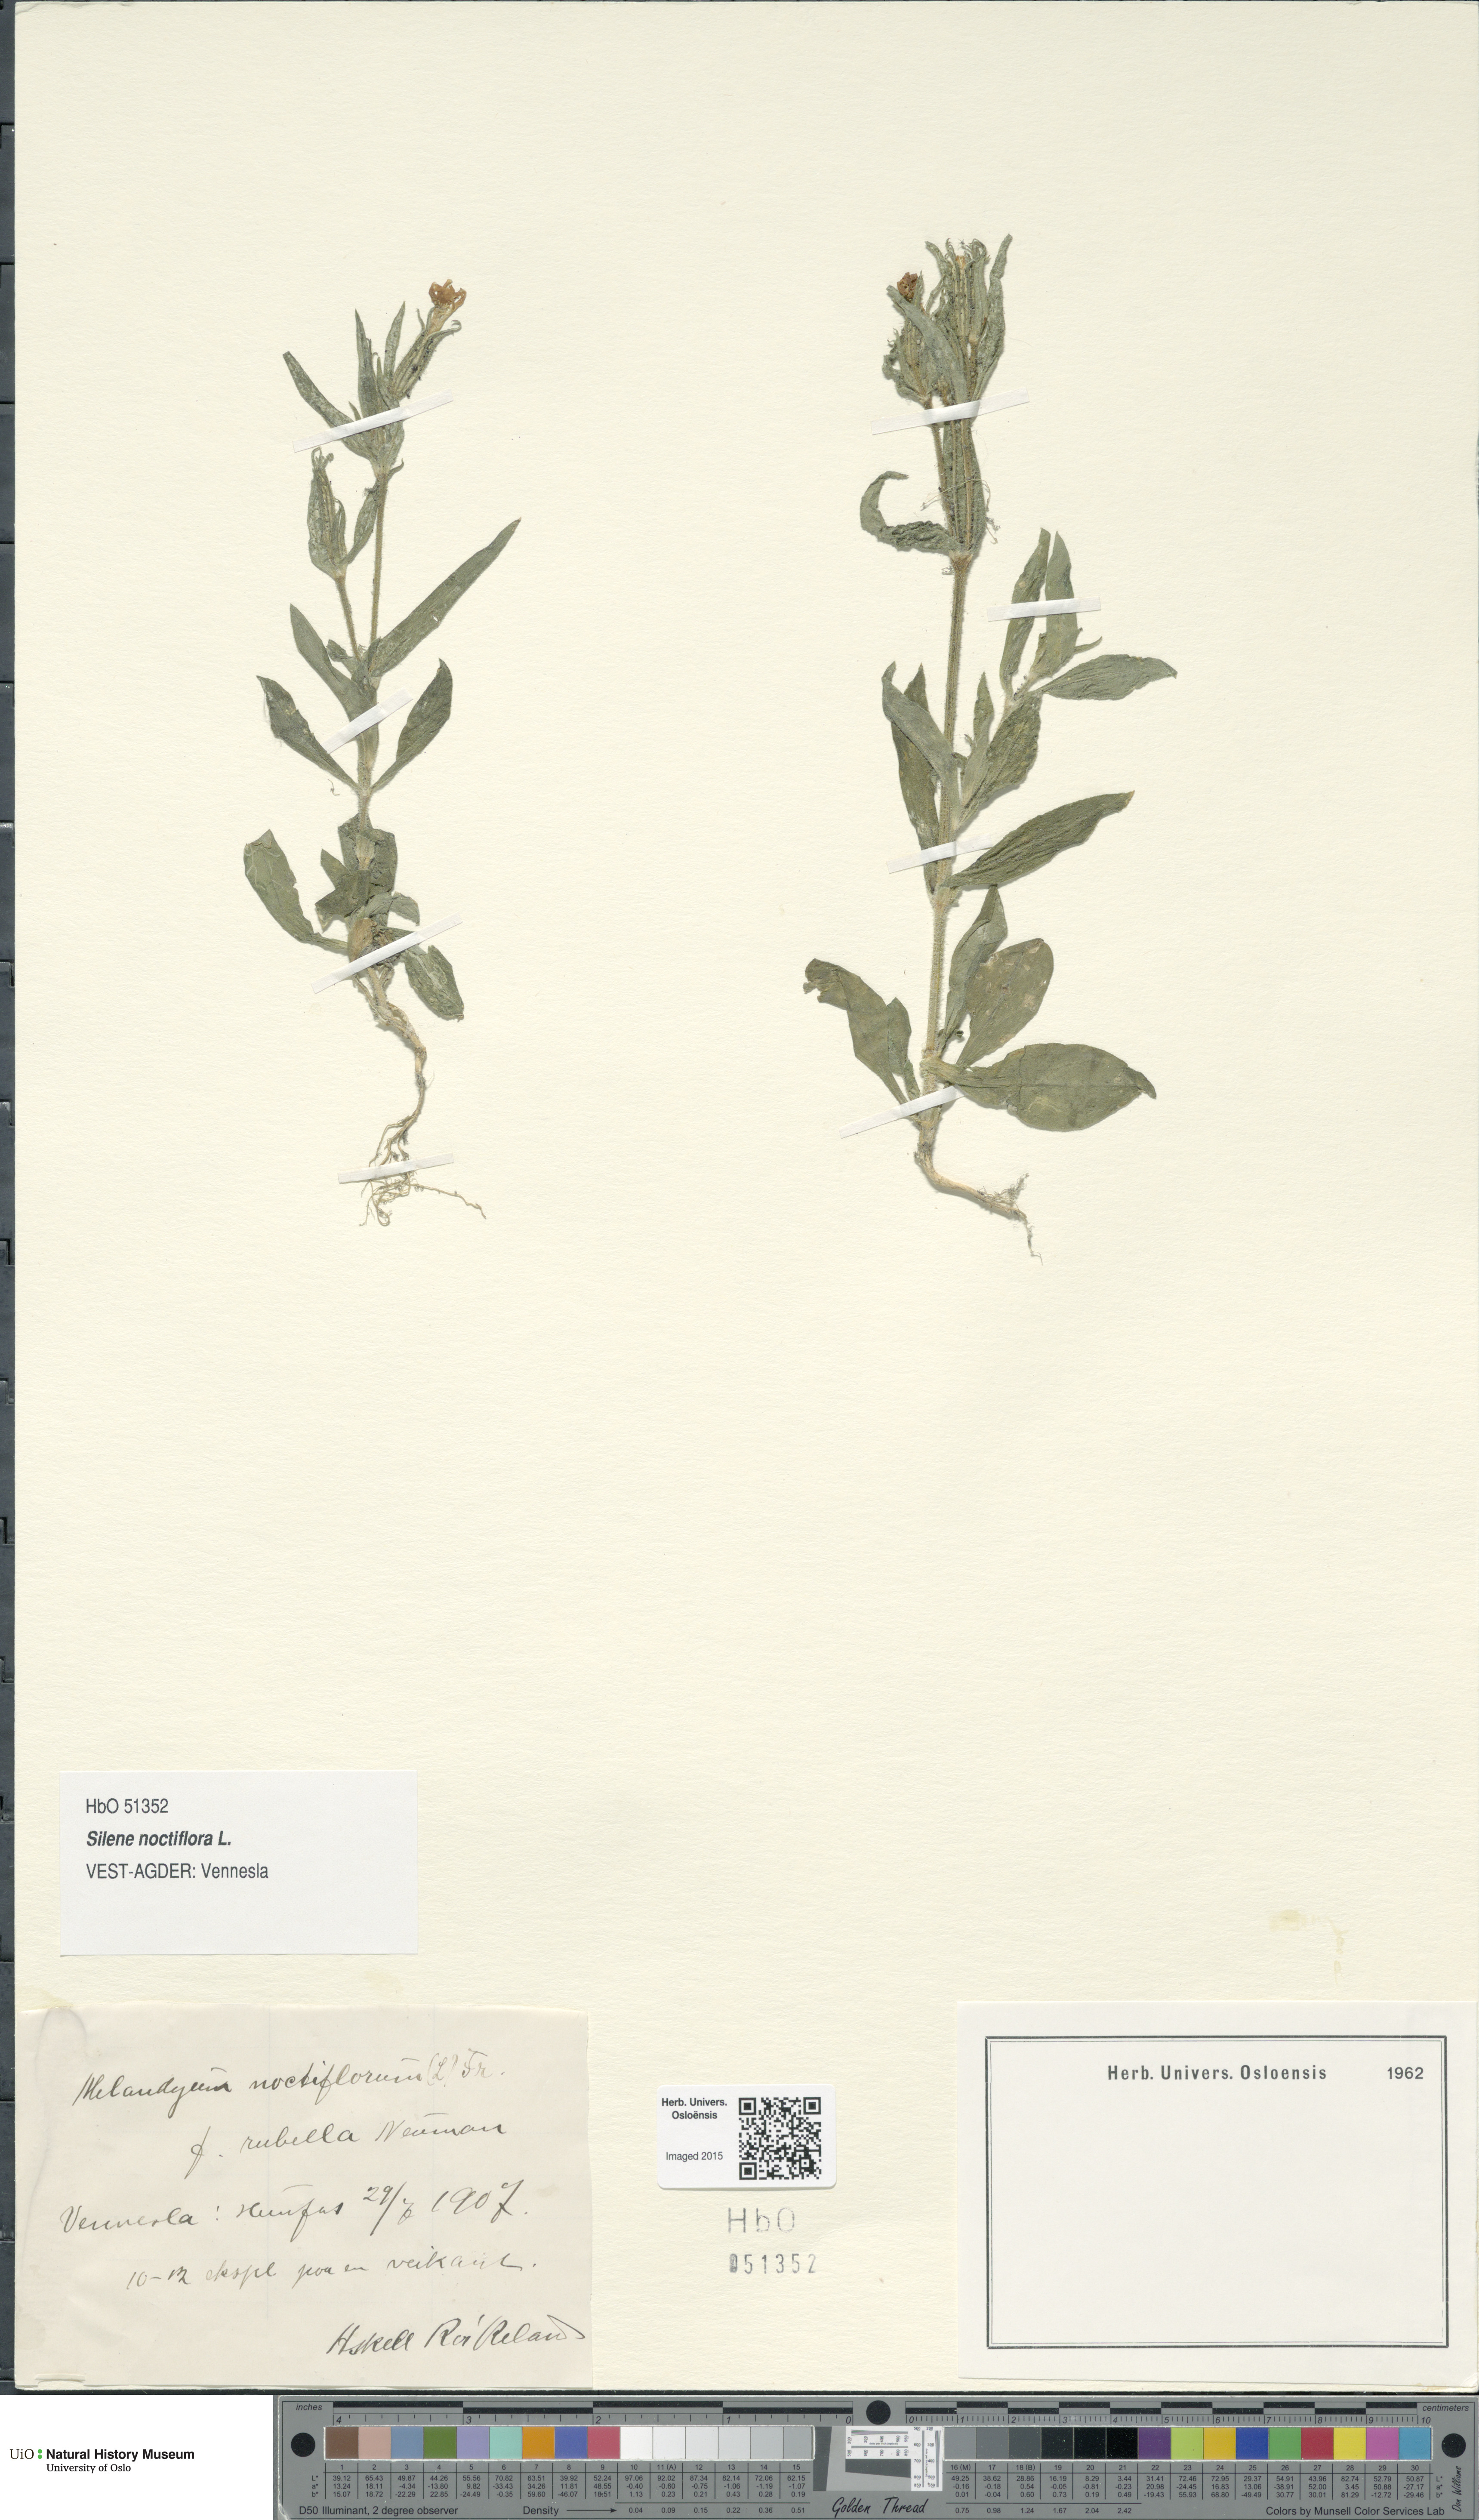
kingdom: Plantae
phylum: Tracheophyta
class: Magnoliopsida
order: Caryophyllales
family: Caryophyllaceae
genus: Silene
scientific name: Silene noctiflora
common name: Night-flowering catchfly
